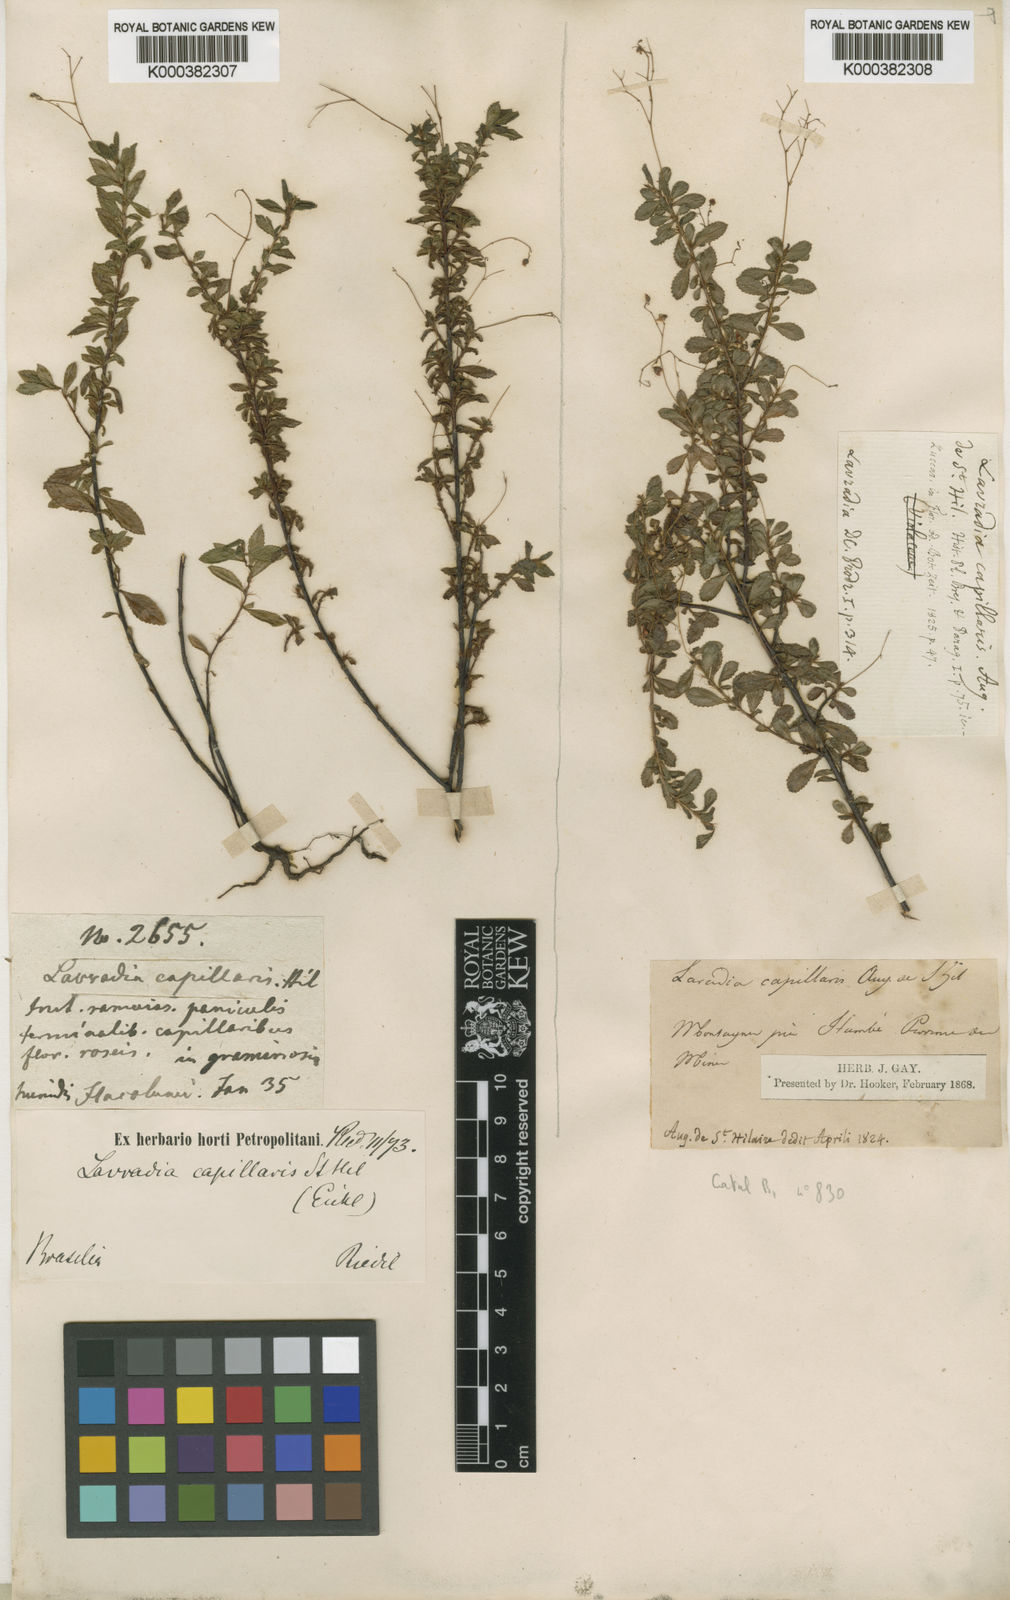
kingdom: Plantae
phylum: Tracheophyta
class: Magnoliopsida
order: Malpighiales
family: Ochnaceae
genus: Sauvagesia
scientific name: Sauvagesia capillaris
